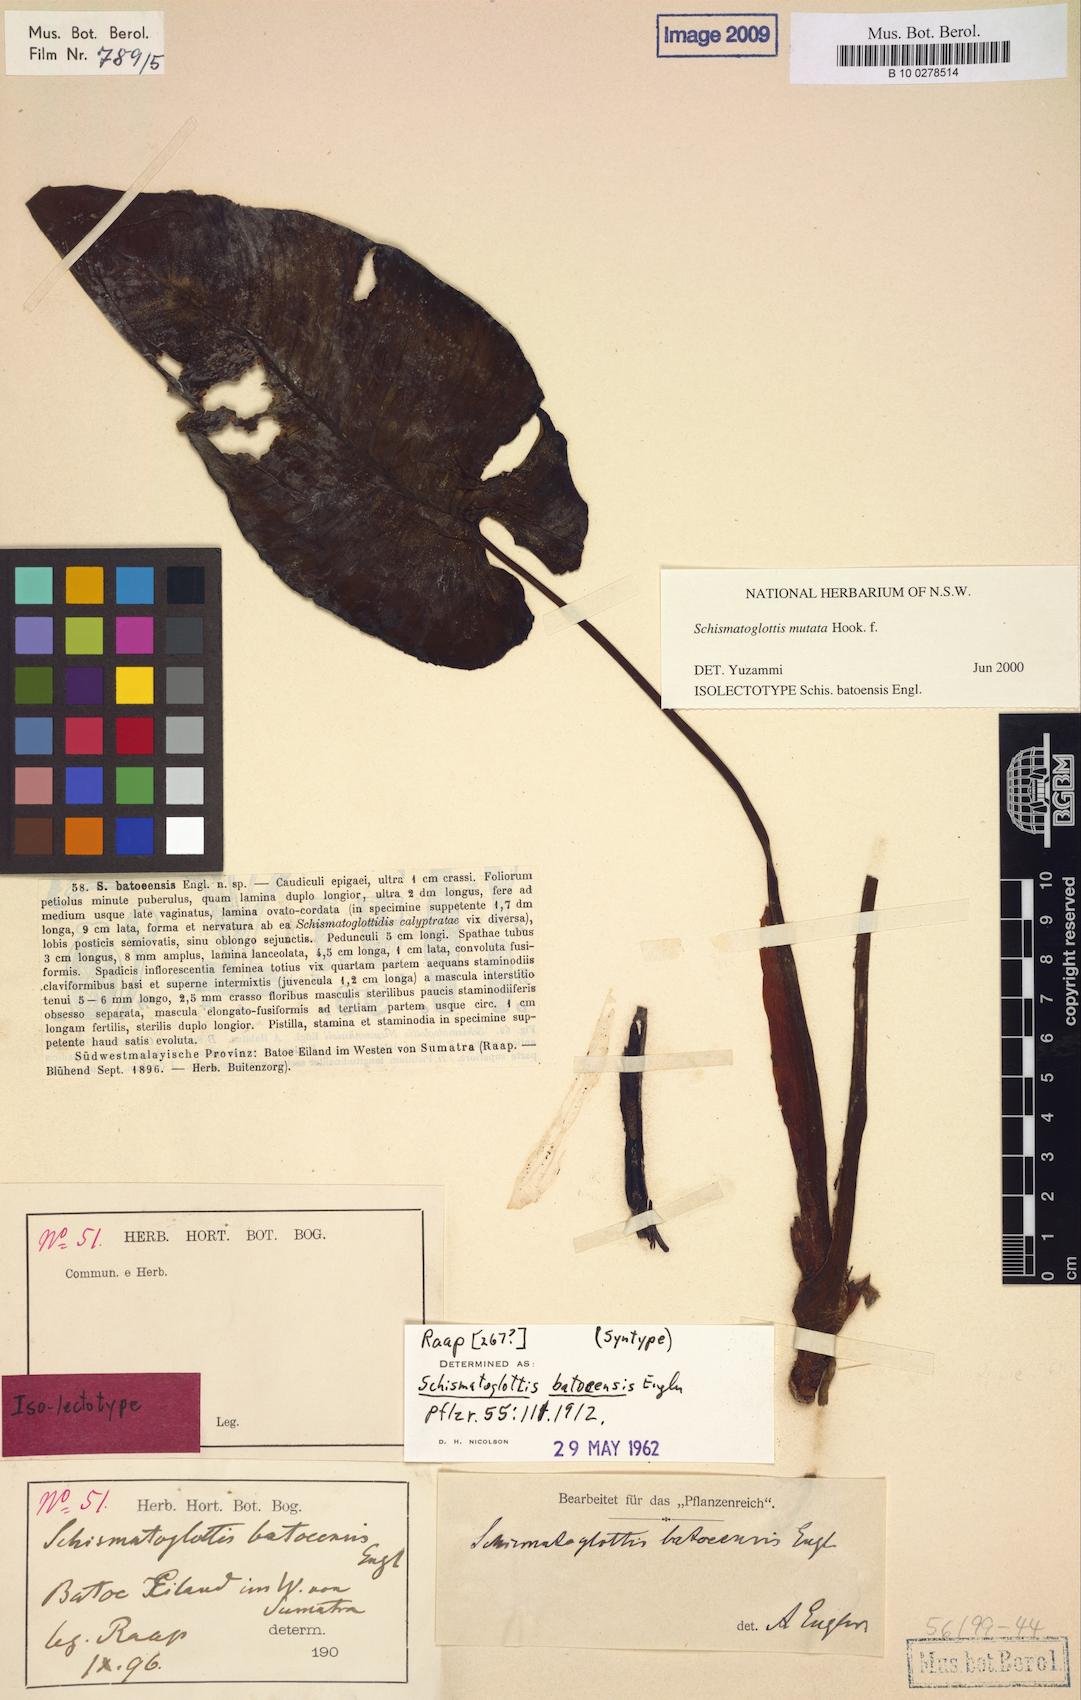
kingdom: Plantae
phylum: Tracheophyta
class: Liliopsida
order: Alismatales
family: Araceae
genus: Apoballis
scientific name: Apoballis mutata
